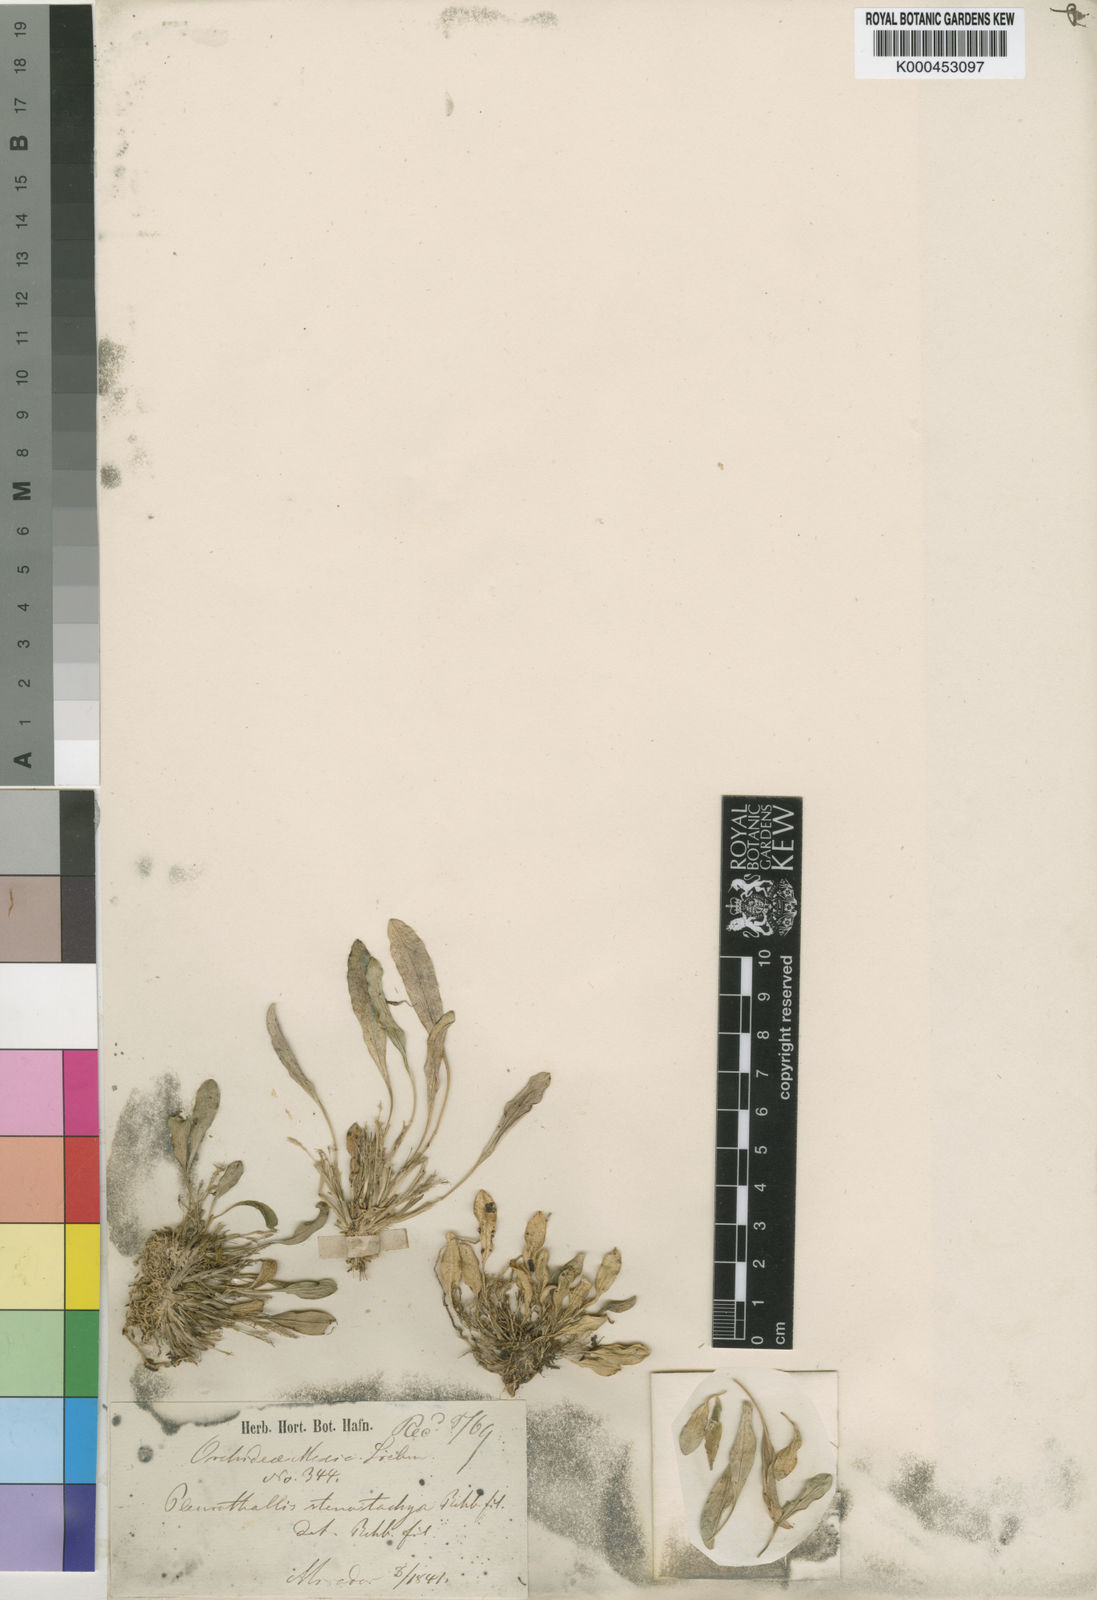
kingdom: Plantae
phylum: Tracheophyta
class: Liliopsida
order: Asparagales
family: Orchidaceae
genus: Platystele
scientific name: Platystele stenostachya
